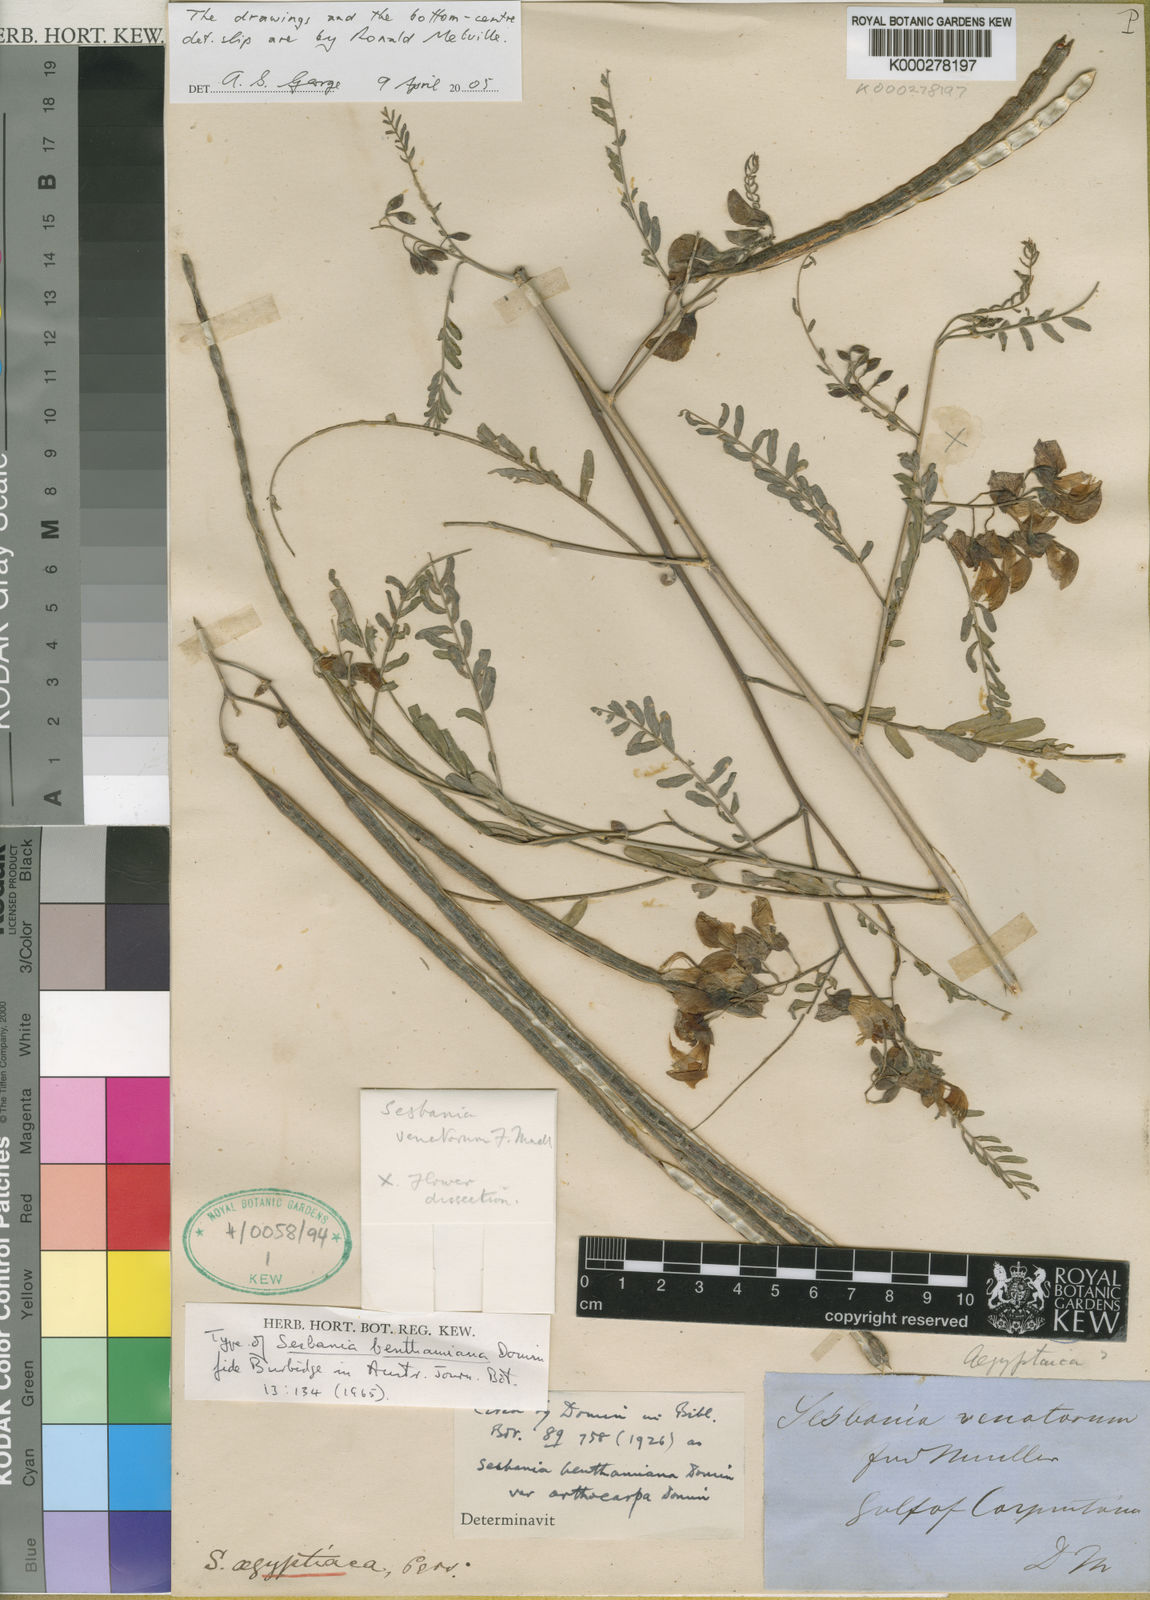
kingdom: Plantae
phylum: Tracheophyta
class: Magnoliopsida
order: Fabales
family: Fabaceae
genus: Sesbania
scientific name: Sesbania benthamiana
